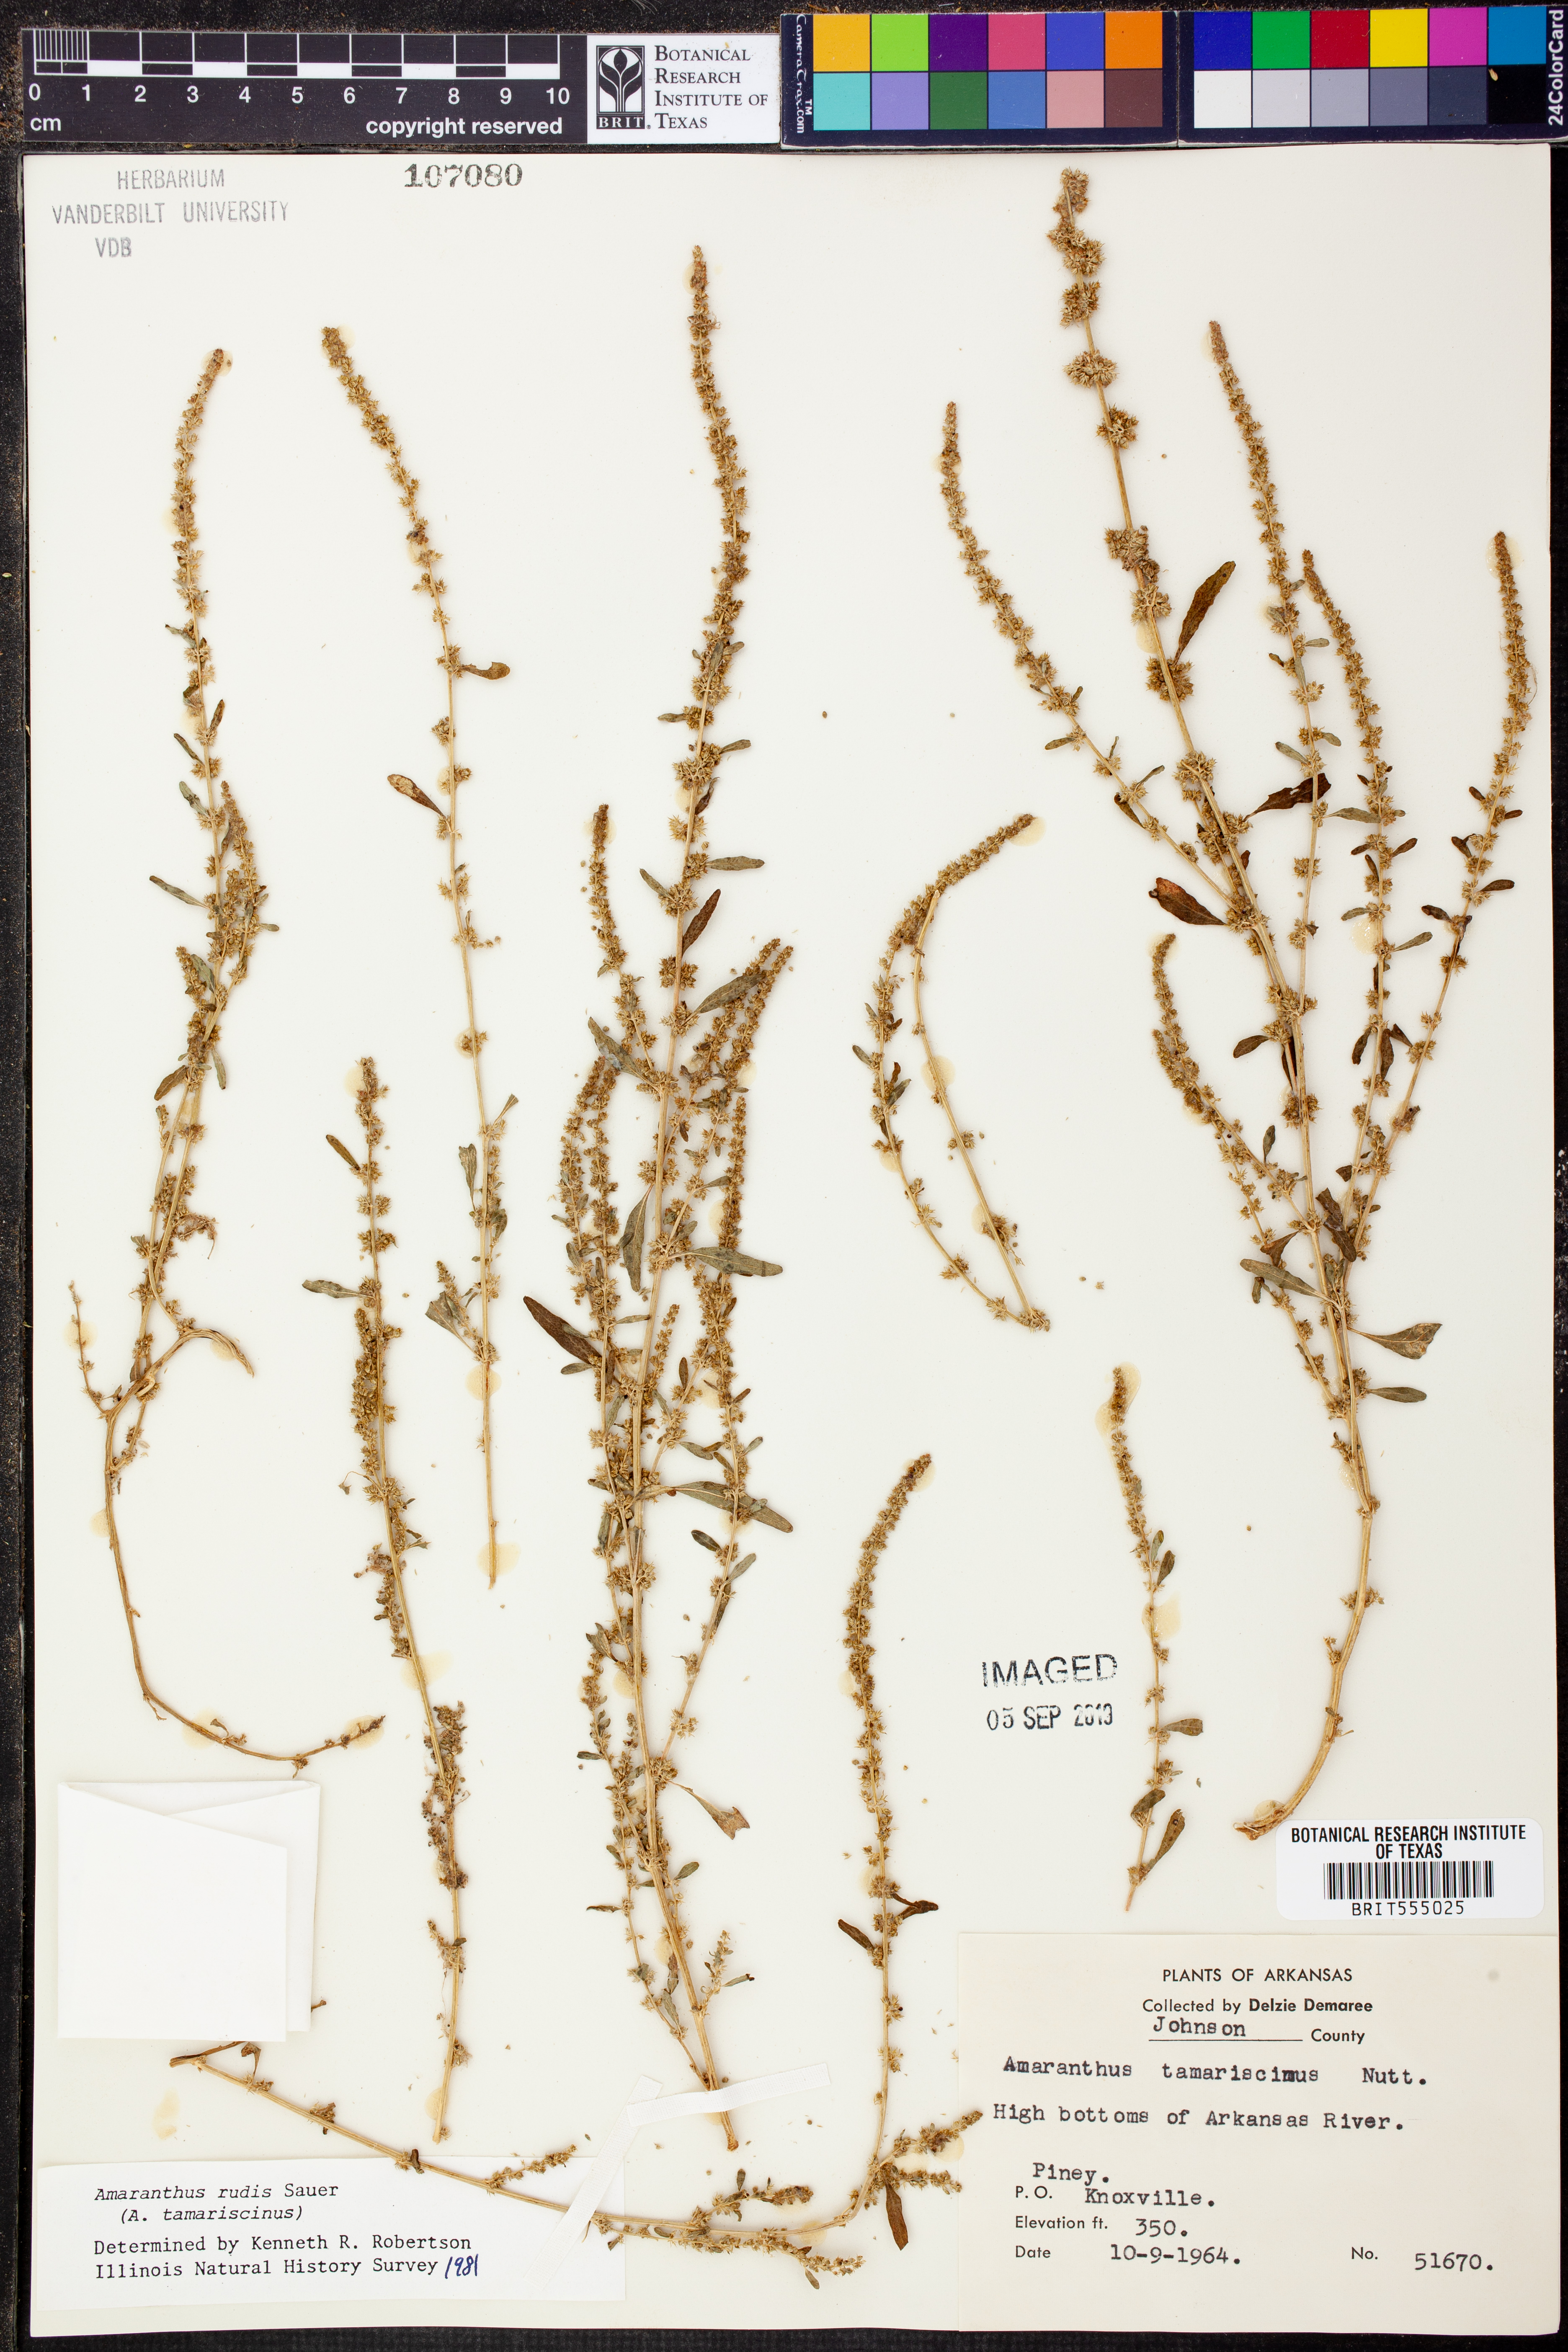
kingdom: Plantae
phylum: Tracheophyta
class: Magnoliopsida
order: Caryophyllales
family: Amaranthaceae
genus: Amaranthus
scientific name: Amaranthus tuberculatus
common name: Rough-fruit amaranth
